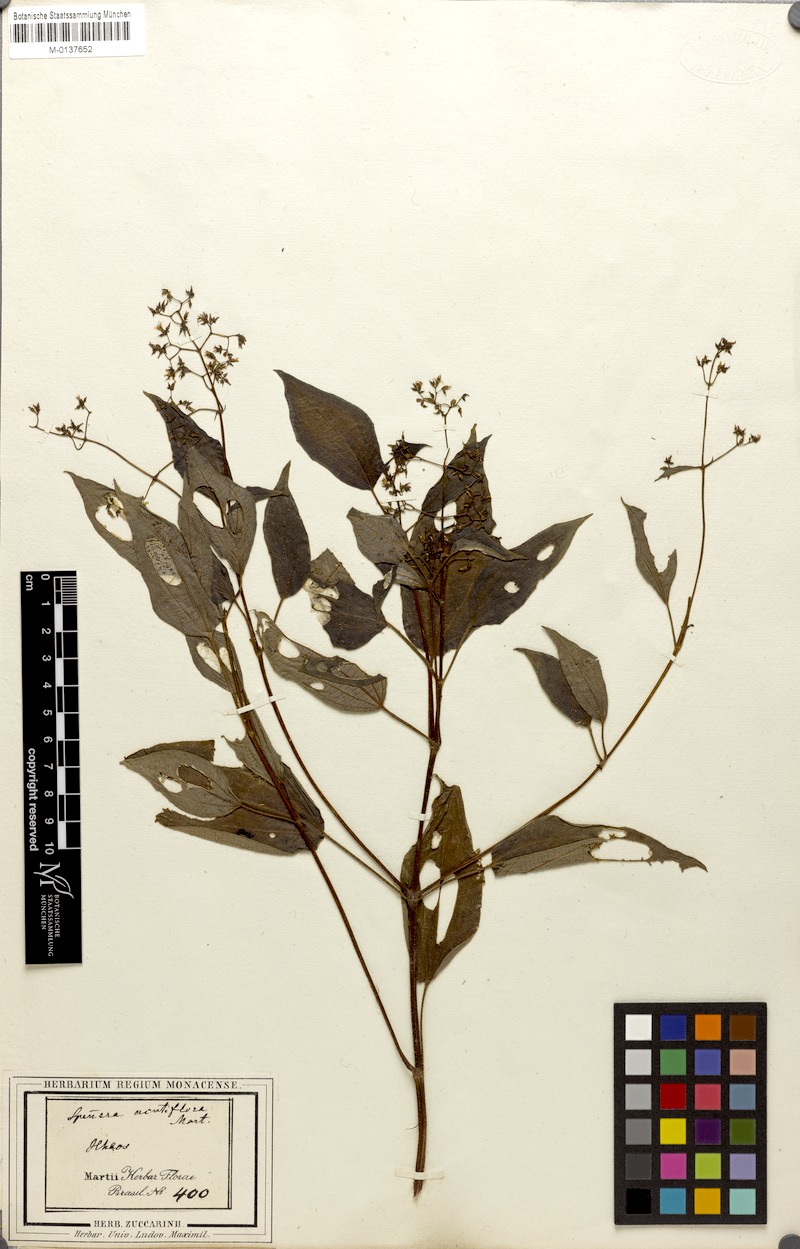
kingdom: Plantae
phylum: Tracheophyta
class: Magnoliopsida
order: Myrtales
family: Melastomataceae
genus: Aciotis
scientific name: Aciotis indecora
